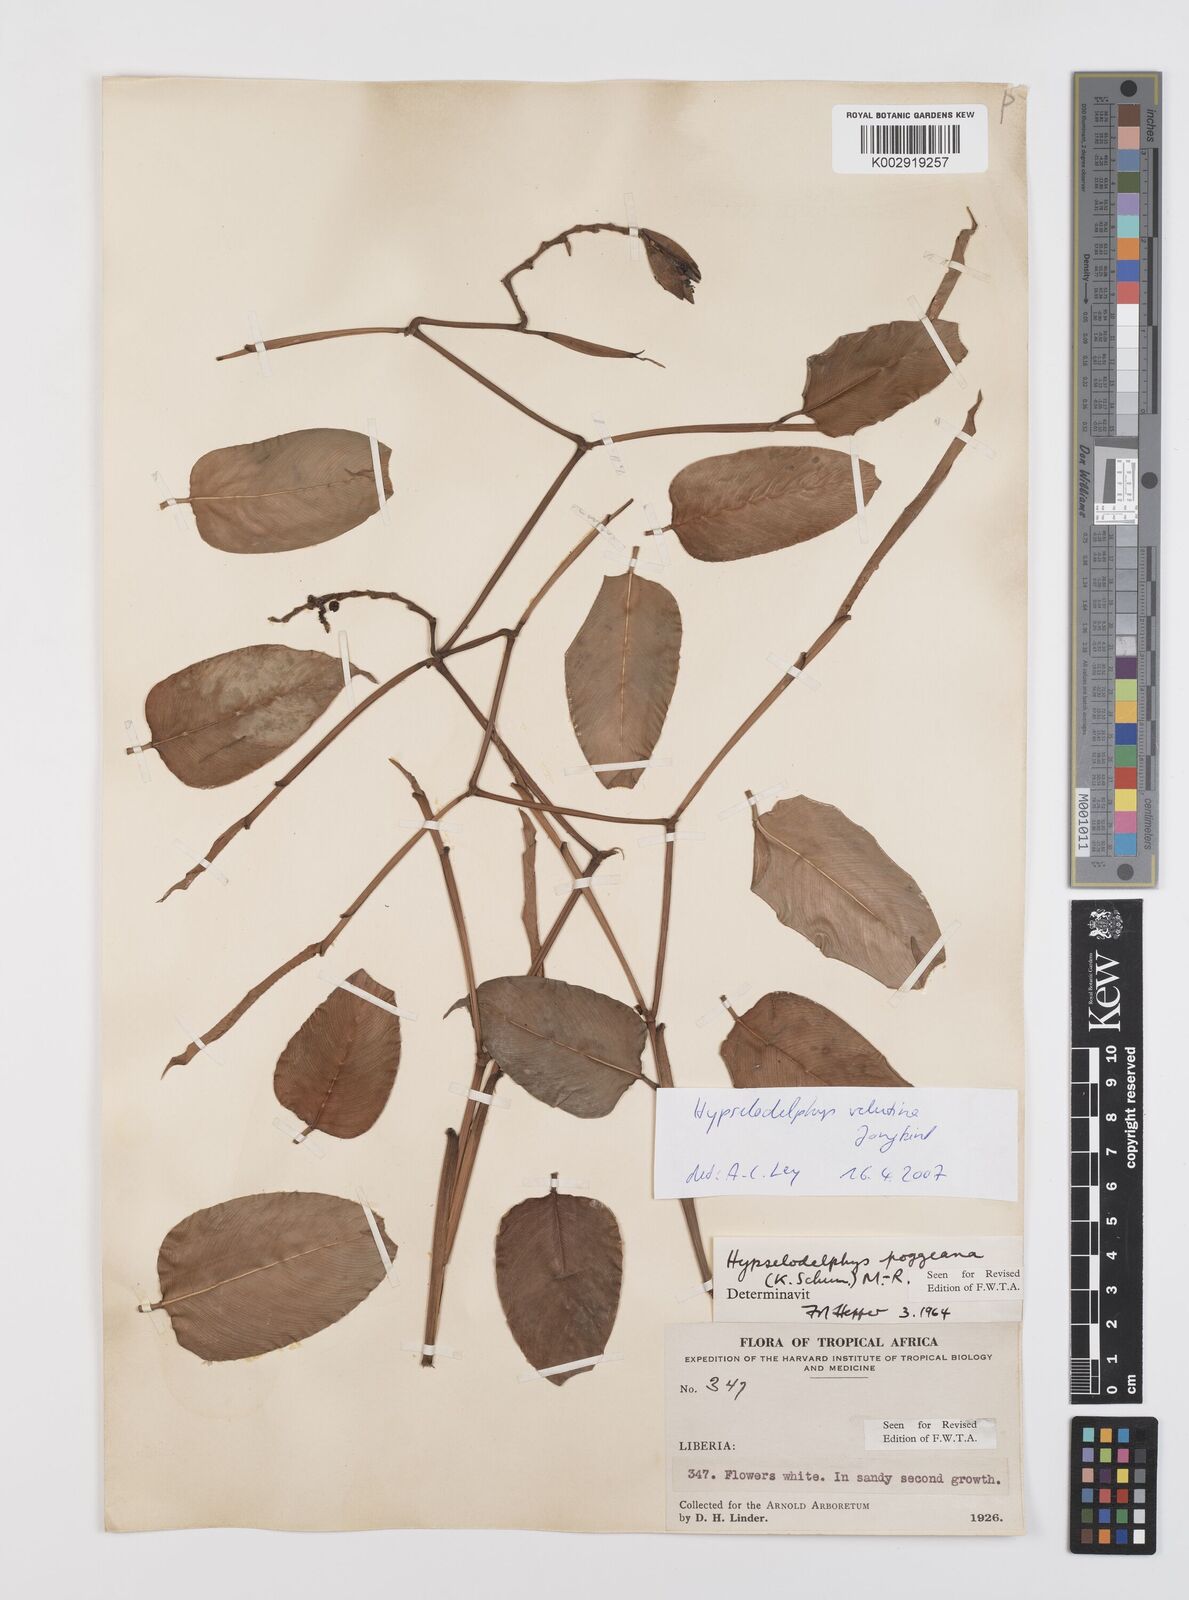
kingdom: Plantae
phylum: Tracheophyta
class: Liliopsida
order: Zingiberales
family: Marantaceae
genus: Hypselodelphys
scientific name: Hypselodelphys velutina
